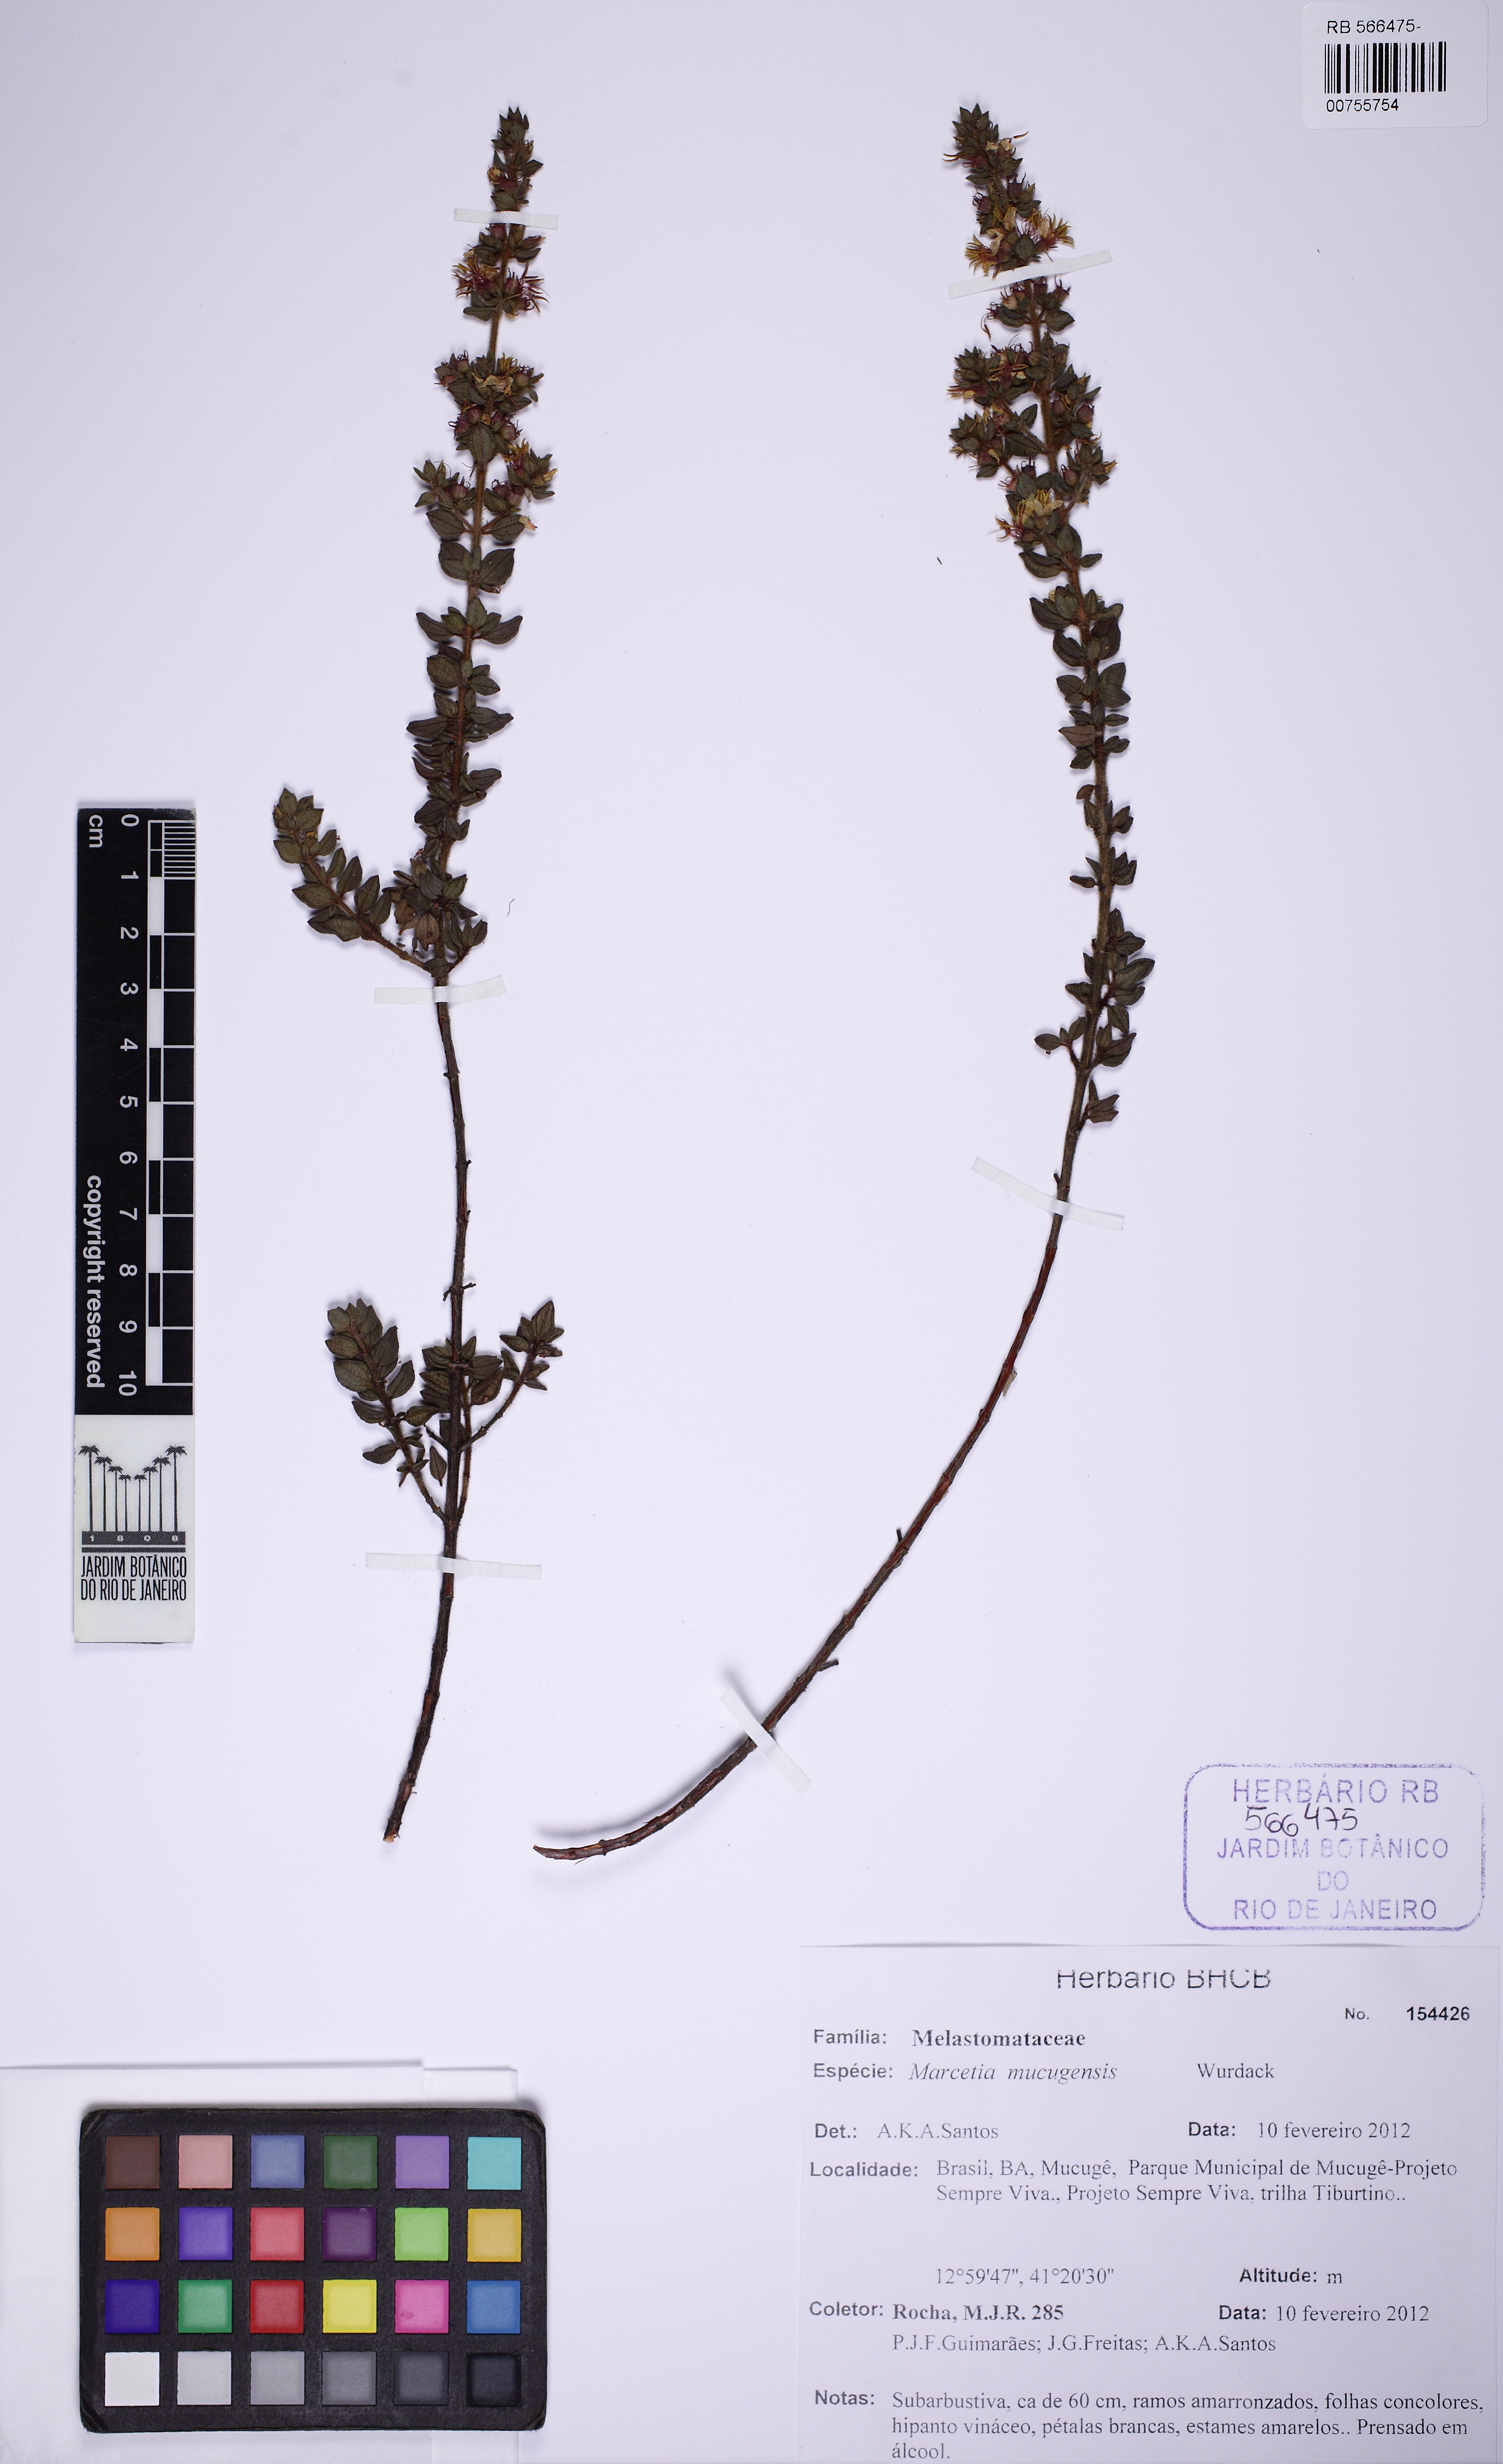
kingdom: Plantae
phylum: Tracheophyta
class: Magnoliopsida
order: Myrtales
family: Melastomataceae
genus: Marcetia
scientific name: Marcetia mucugensis
